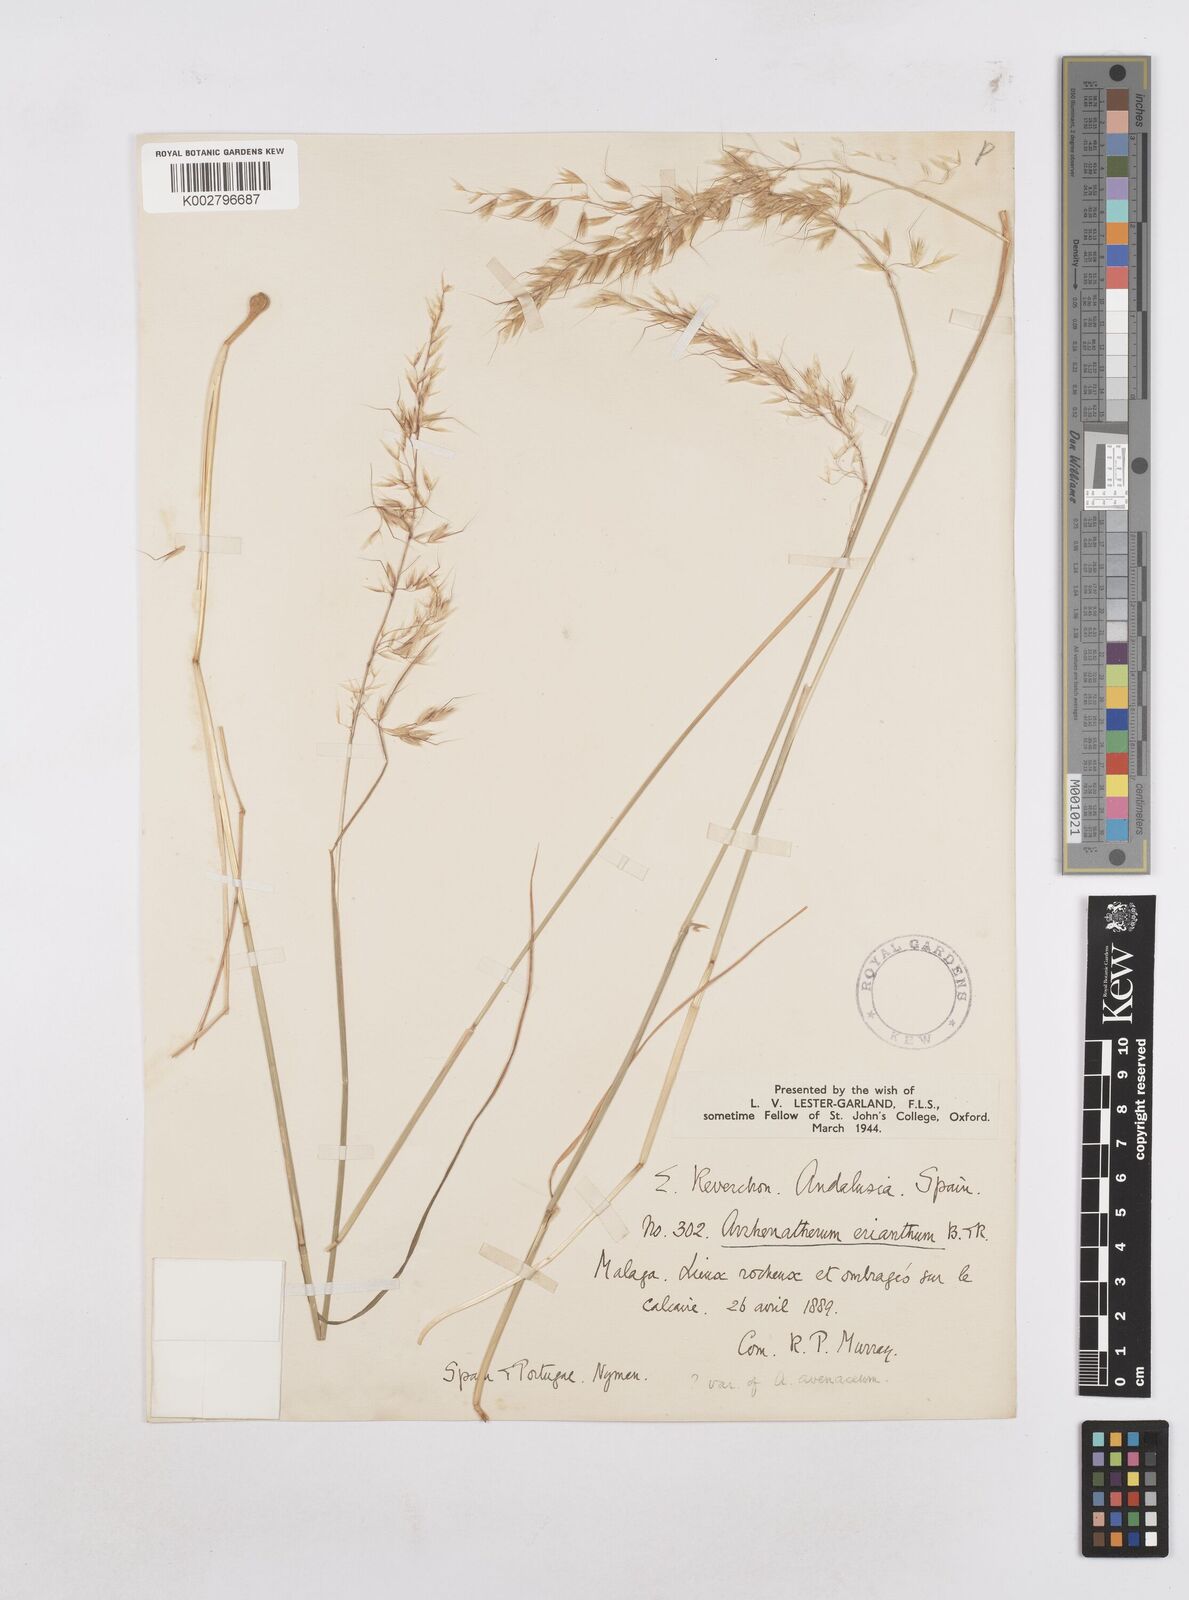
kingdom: Plantae
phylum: Tracheophyta
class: Liliopsida
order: Poales
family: Poaceae
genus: Arrhenatherum
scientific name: Arrhenatherum album
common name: Tall oat grass
